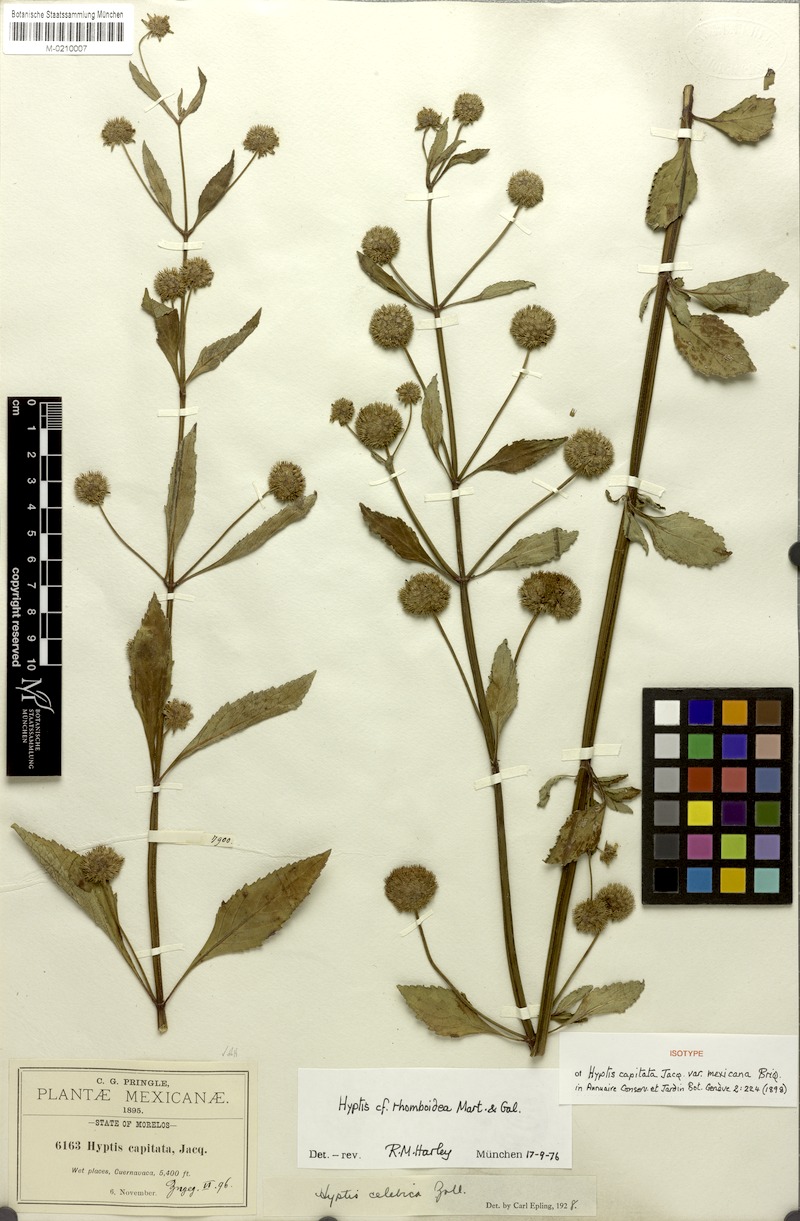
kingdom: Plantae
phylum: Tracheophyta
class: Magnoliopsida
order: Lamiales
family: Lamiaceae
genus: Hyptis
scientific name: Hyptis capitata
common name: False ironwort
